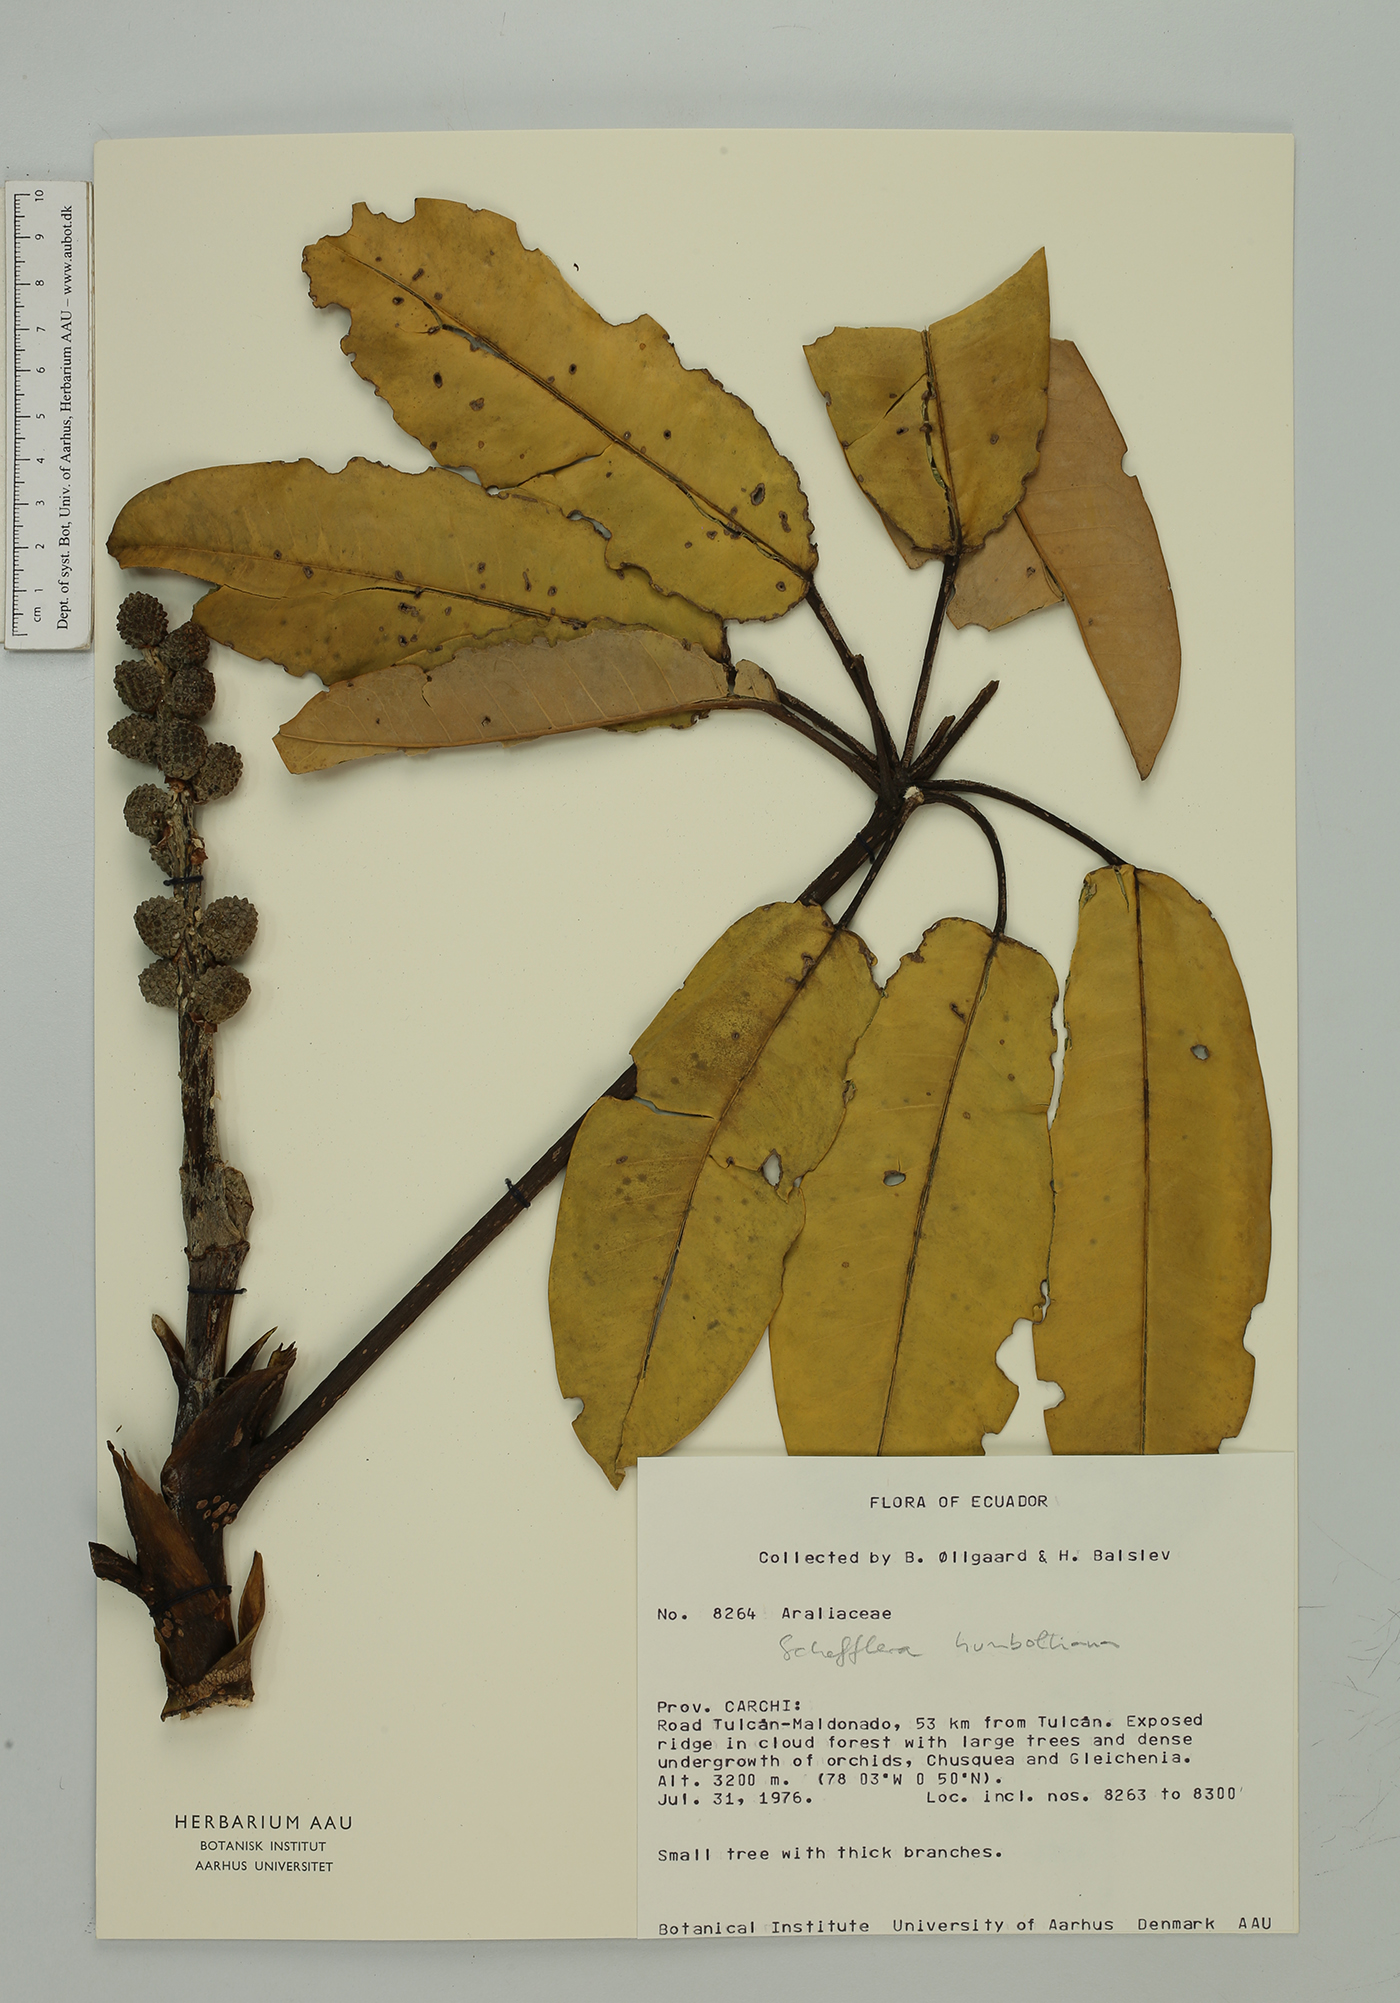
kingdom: Plantae
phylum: Tracheophyta
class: Magnoliopsida
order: Apiales
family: Araliaceae
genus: Sciodaphyllum
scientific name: Sciodaphyllum sodiroi
